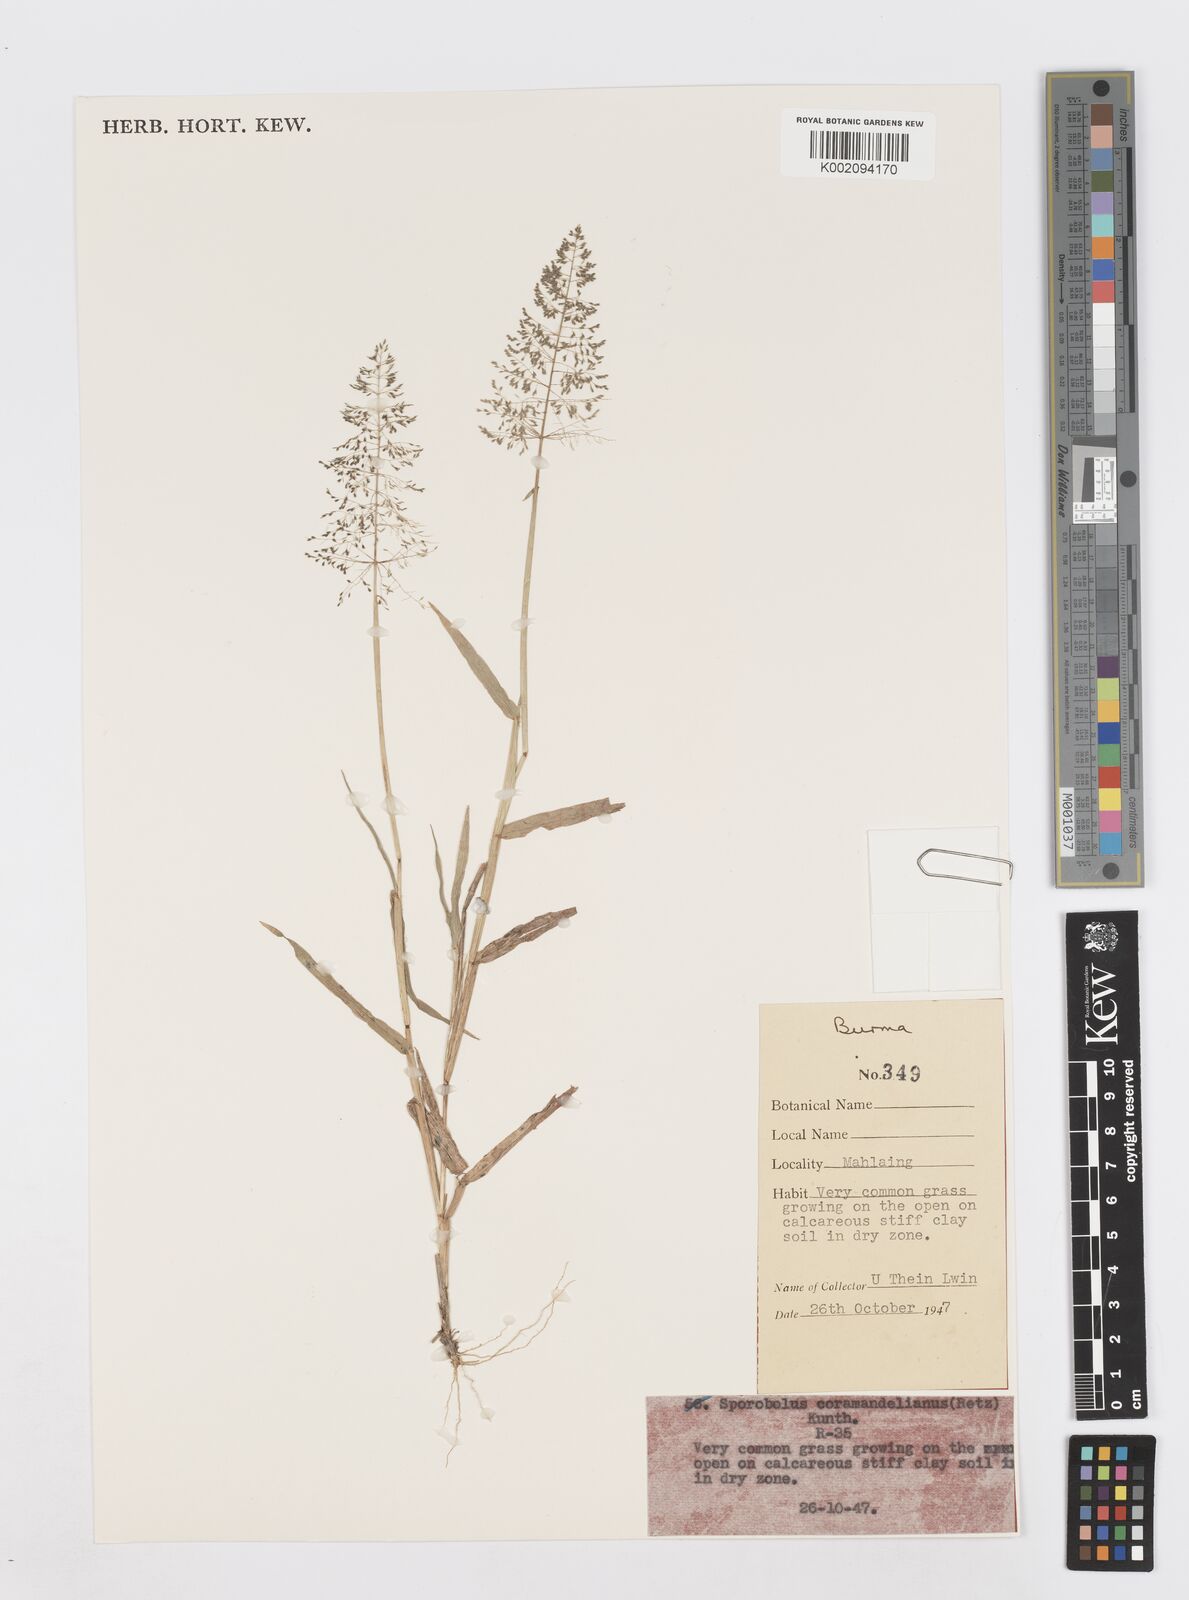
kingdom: Plantae
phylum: Tracheophyta
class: Liliopsida
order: Poales
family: Poaceae
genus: Sporobolus
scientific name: Sporobolus coromandelianus
